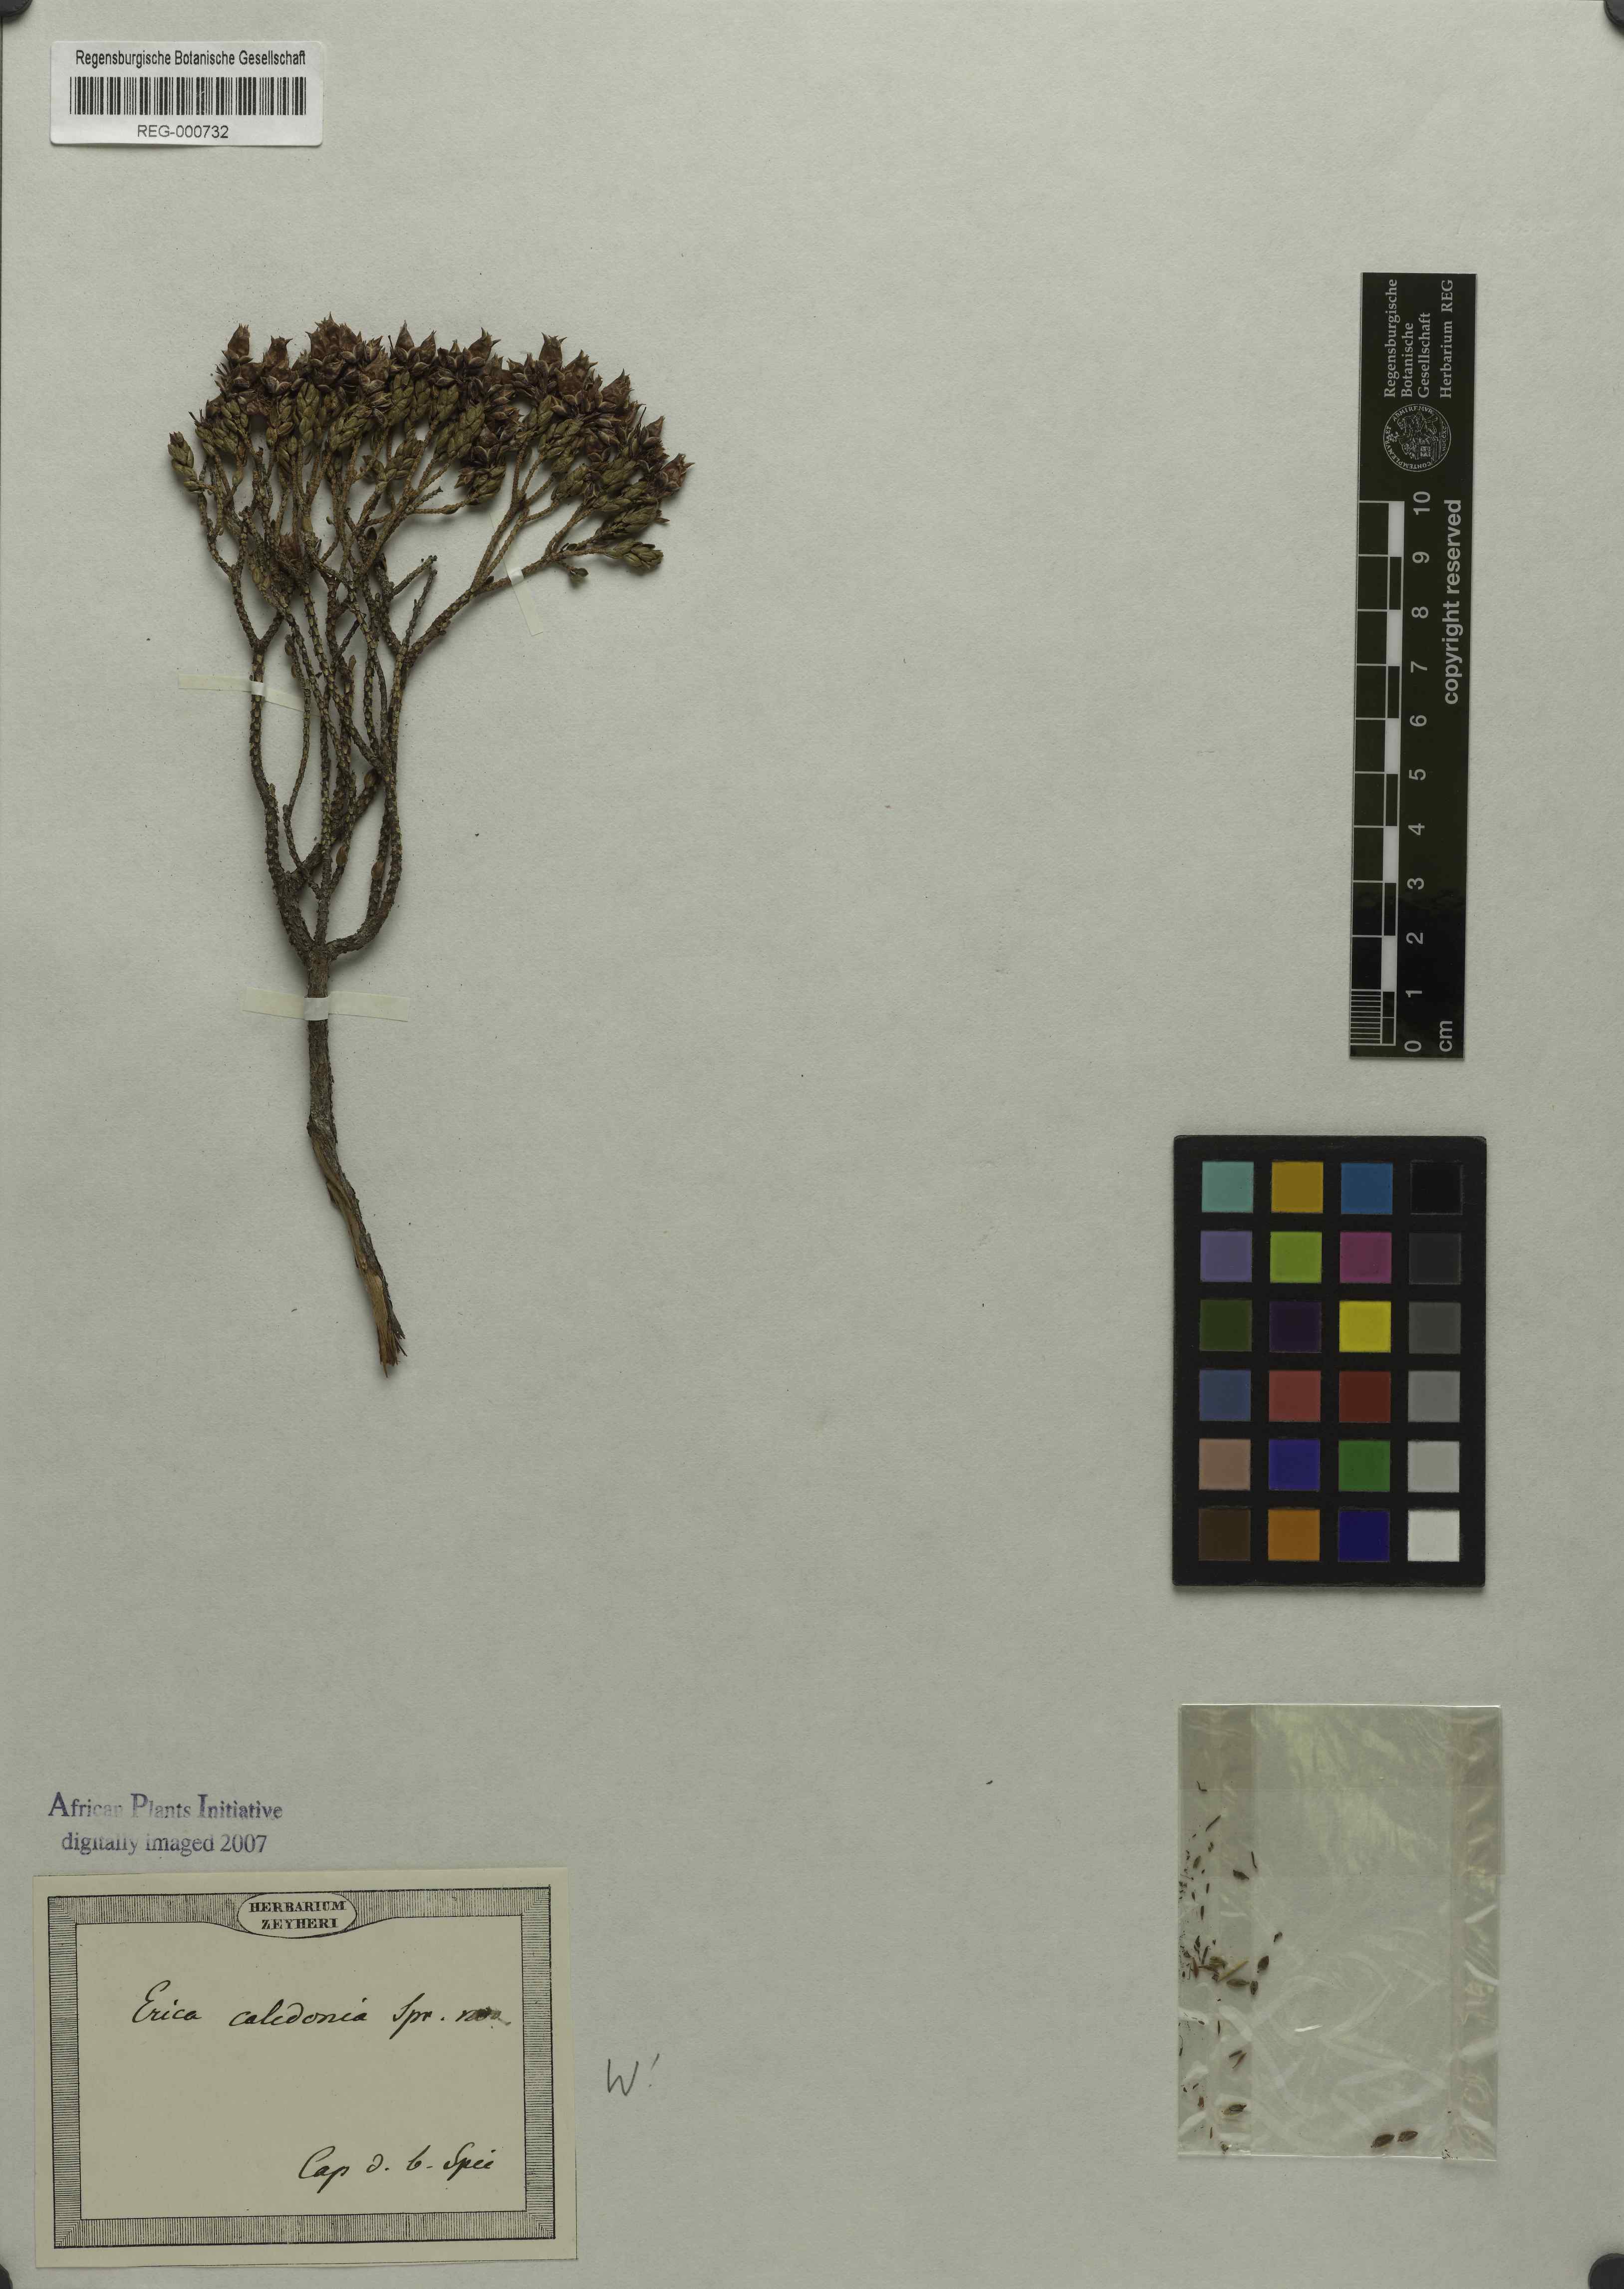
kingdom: Plantae
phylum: Tracheophyta
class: Magnoliopsida
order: Ericales
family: Ericaceae
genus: Erica
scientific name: Erica caledonica
